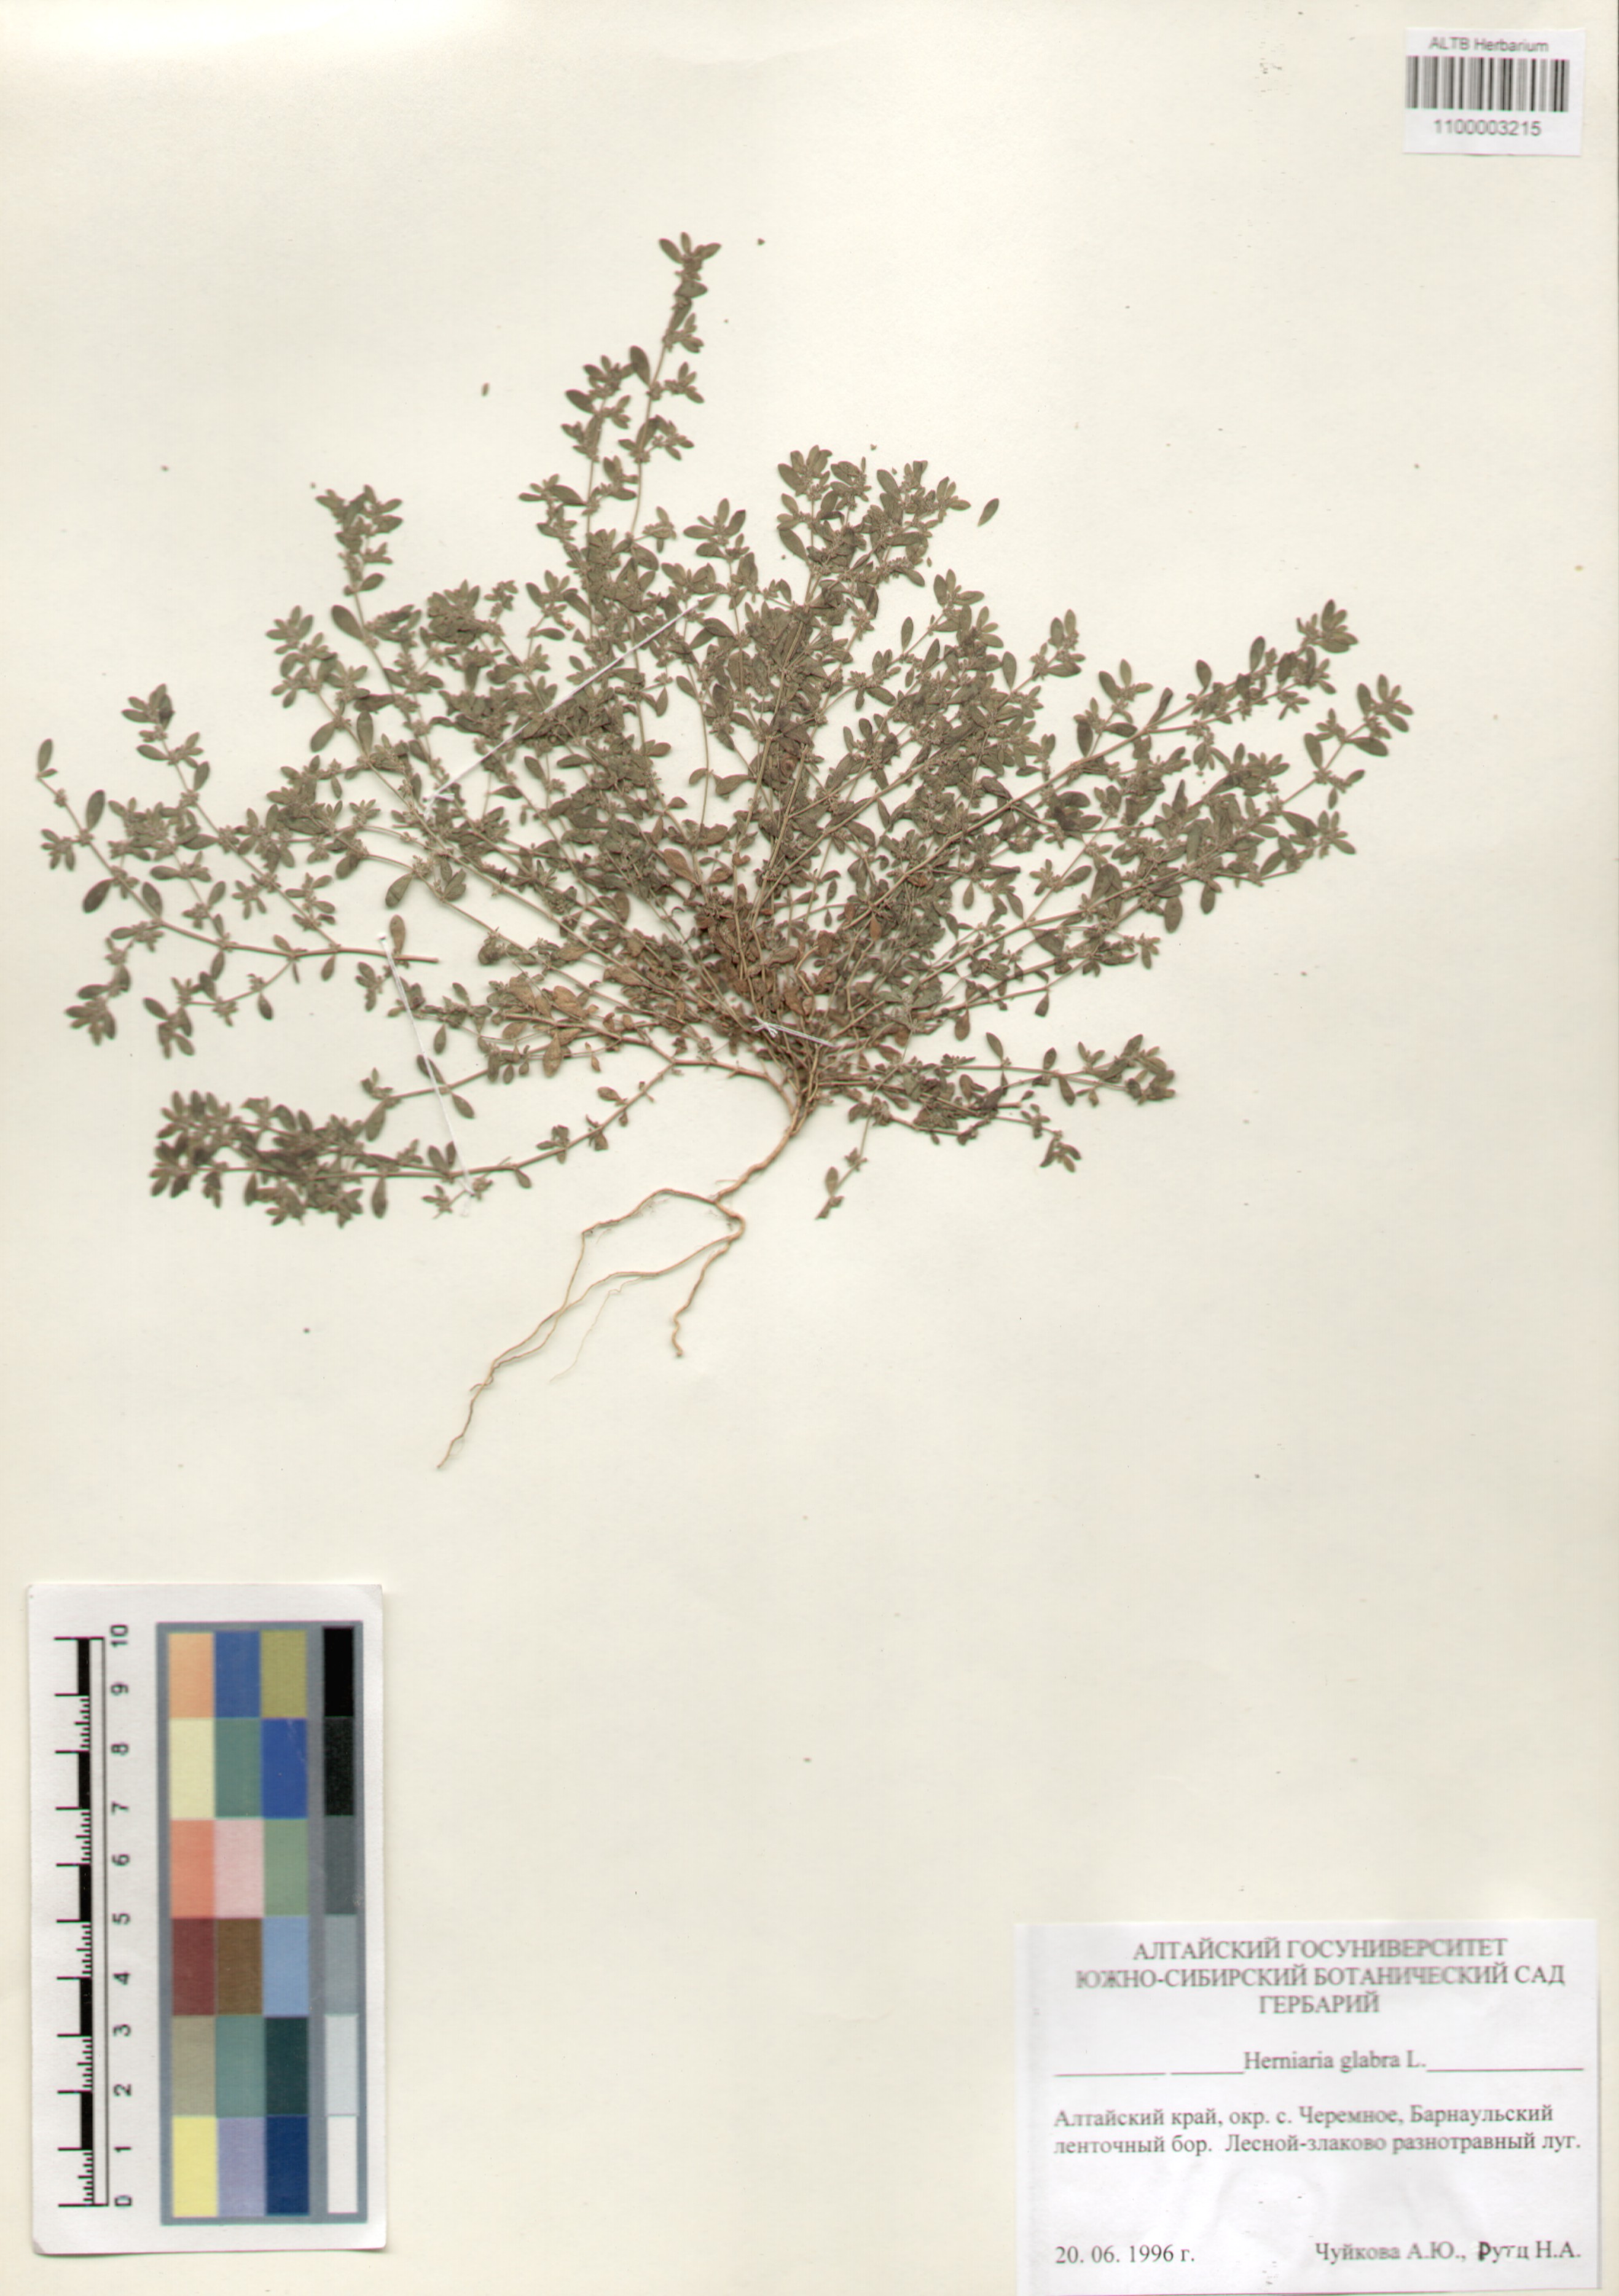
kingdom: Plantae
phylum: Tracheophyta
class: Magnoliopsida
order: Caryophyllales
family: Caryophyllaceae
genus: Herniaria
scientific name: Herniaria glabra
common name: Smooth rupturewort
